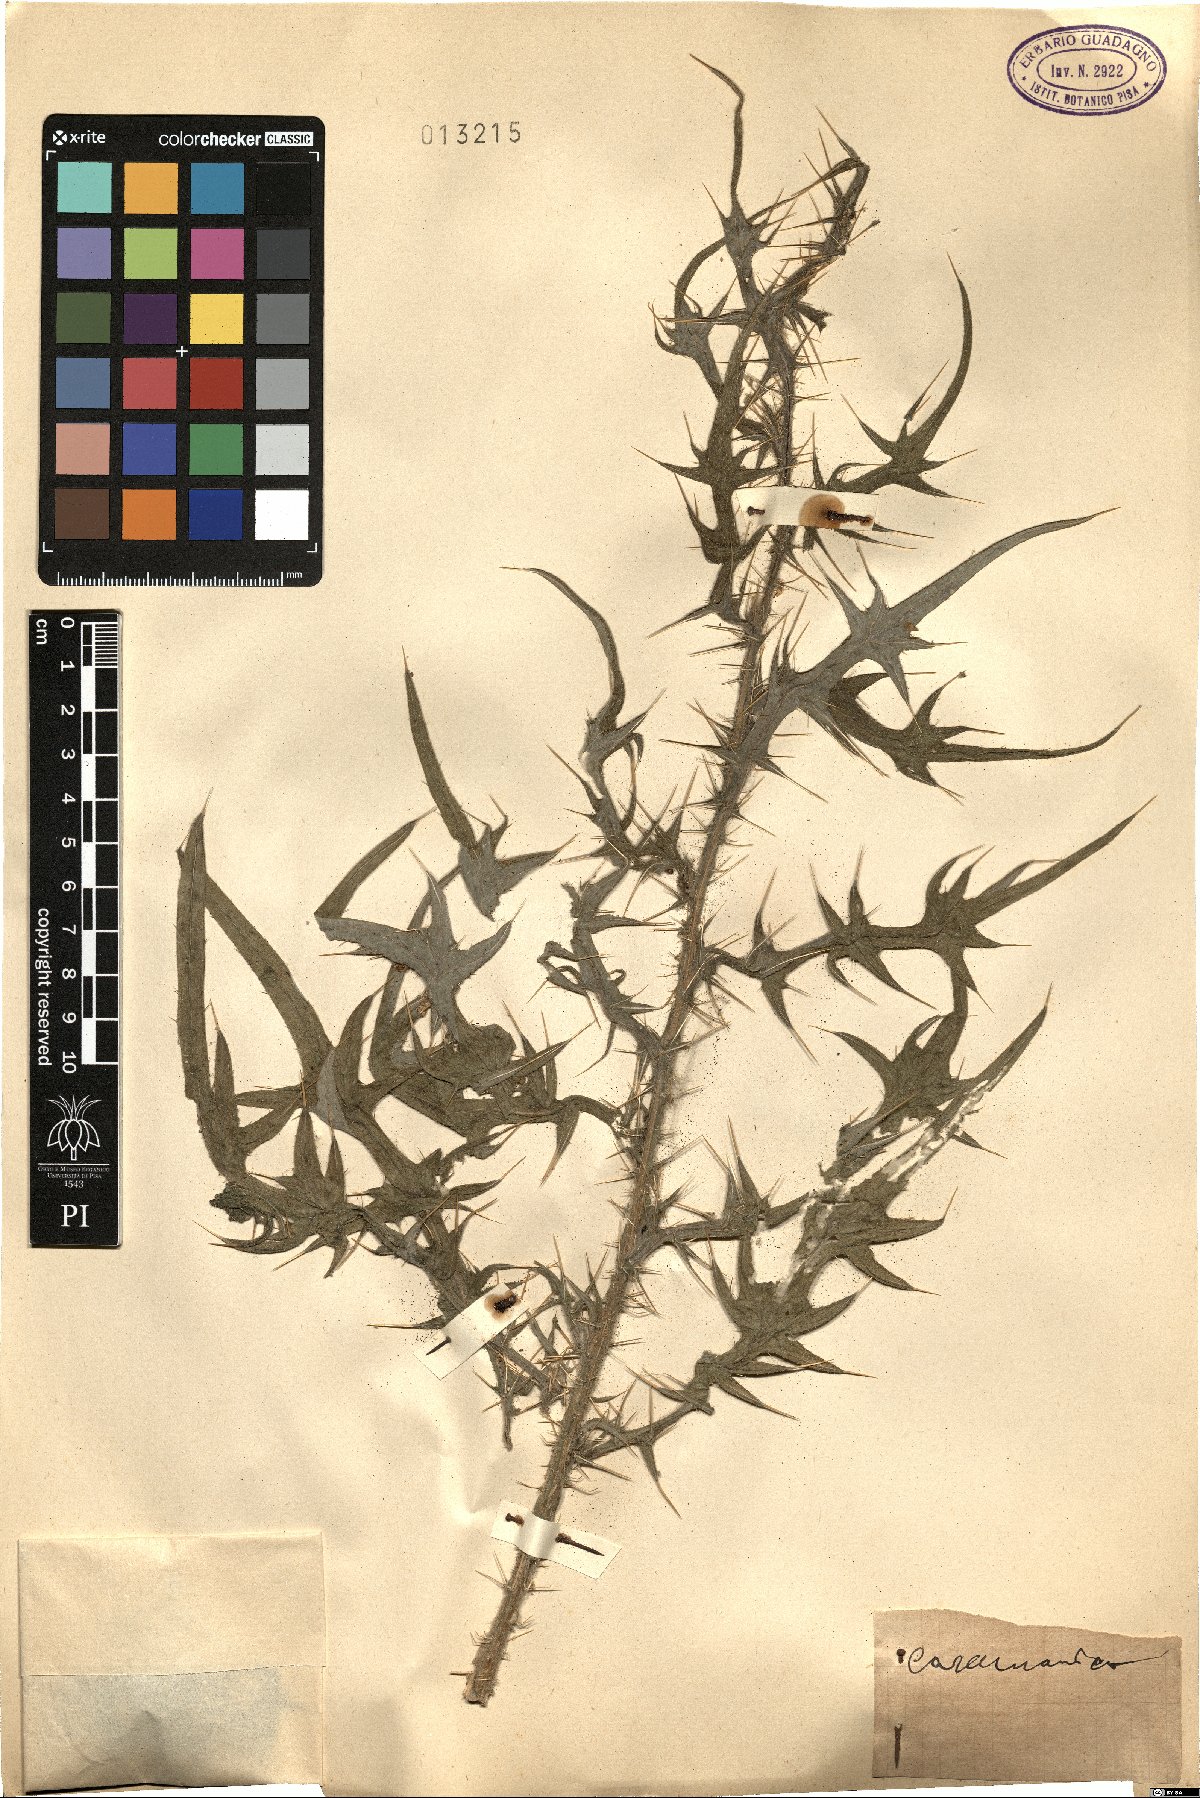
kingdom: Plantae
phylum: Tracheophyta
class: Magnoliopsida
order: Asterales
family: Asteraceae
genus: Cirsium
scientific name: Cirsium
